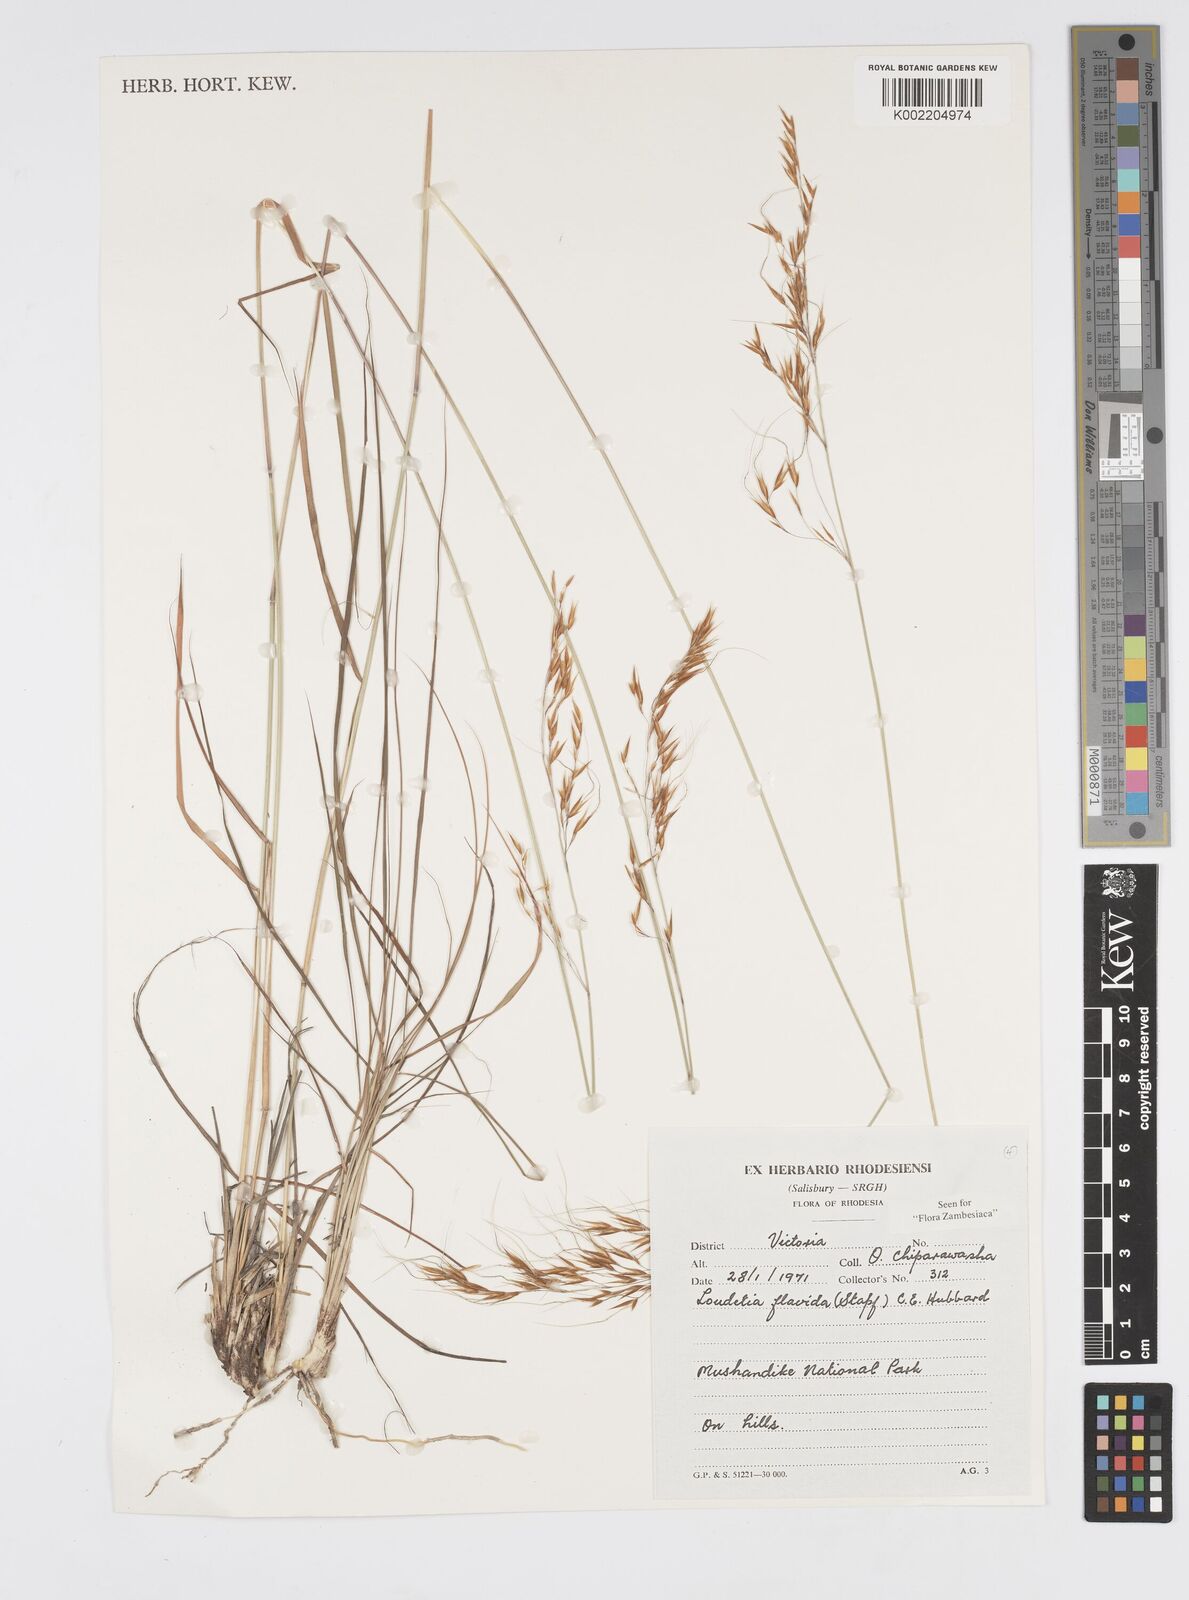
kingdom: Plantae
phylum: Tracheophyta
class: Liliopsida
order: Poales
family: Poaceae
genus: Loudetia
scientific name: Loudetia flavida
